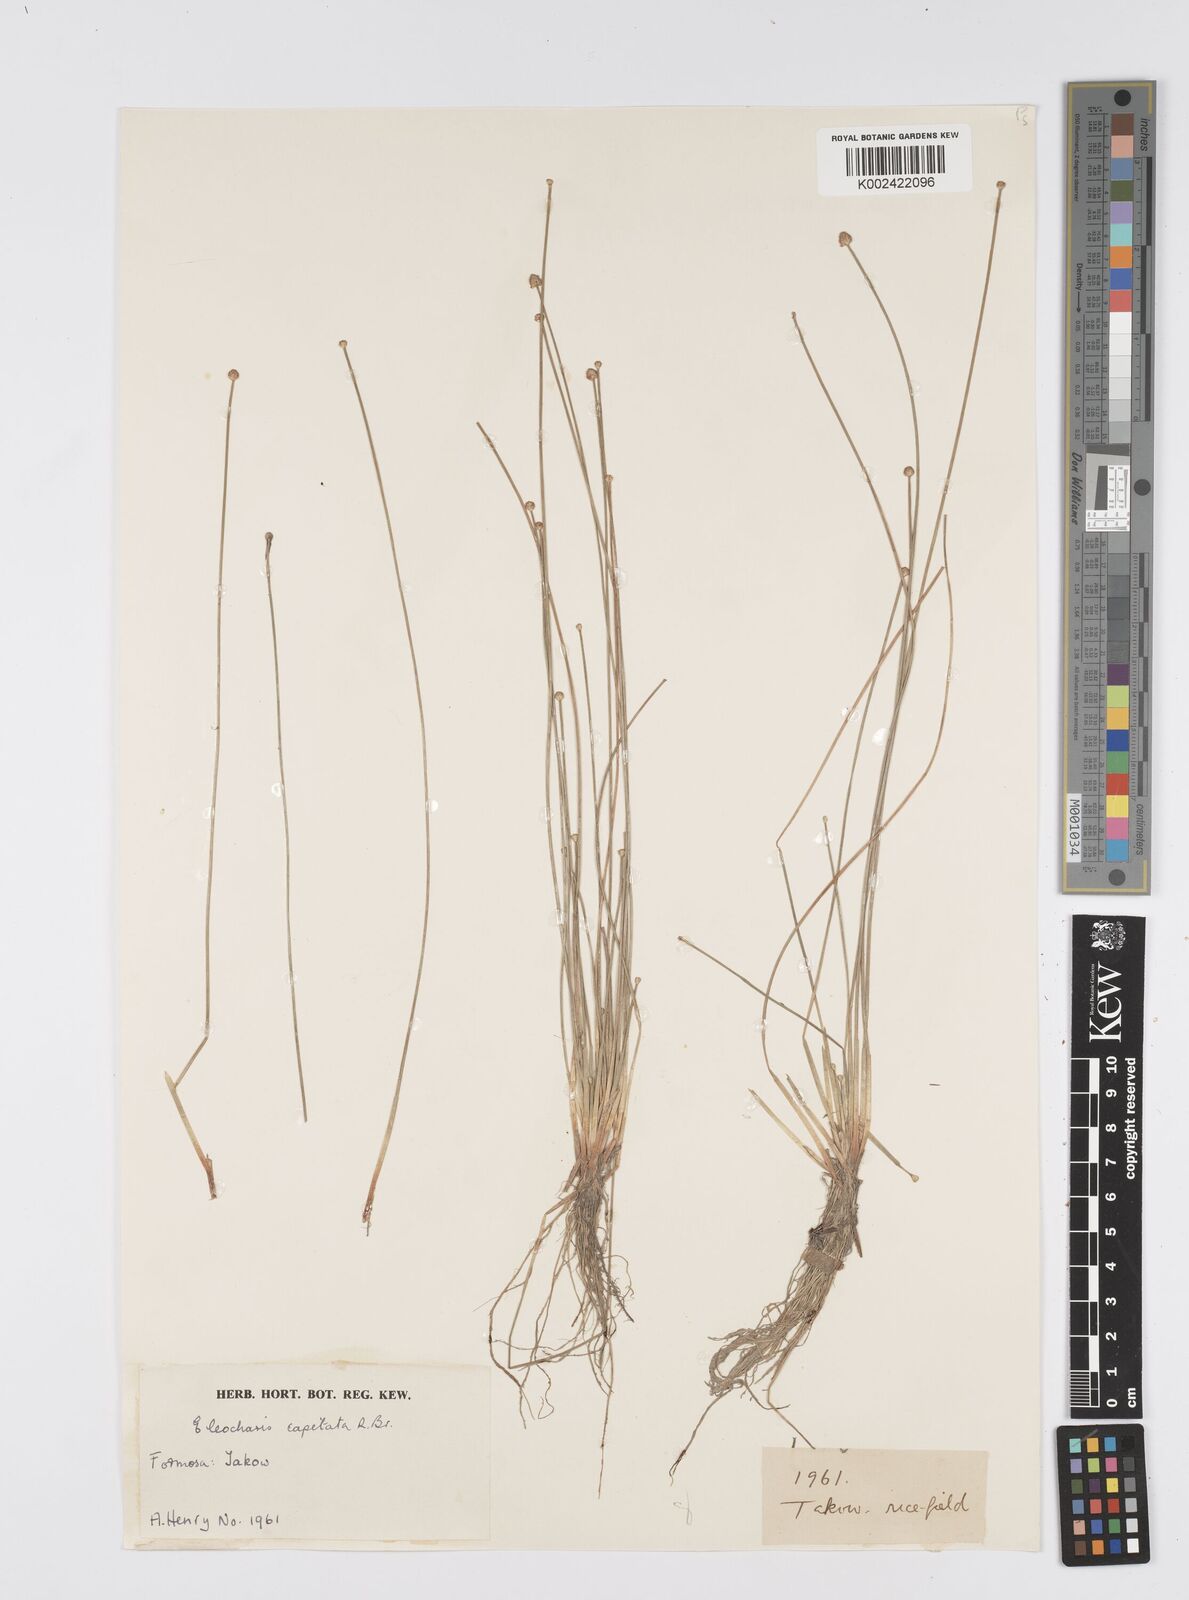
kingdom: Plantae
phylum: Tracheophyta
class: Liliopsida
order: Poales
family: Cyperaceae
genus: Eleocharis
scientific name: Eleocharis geniculata
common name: Canada spikesedge
